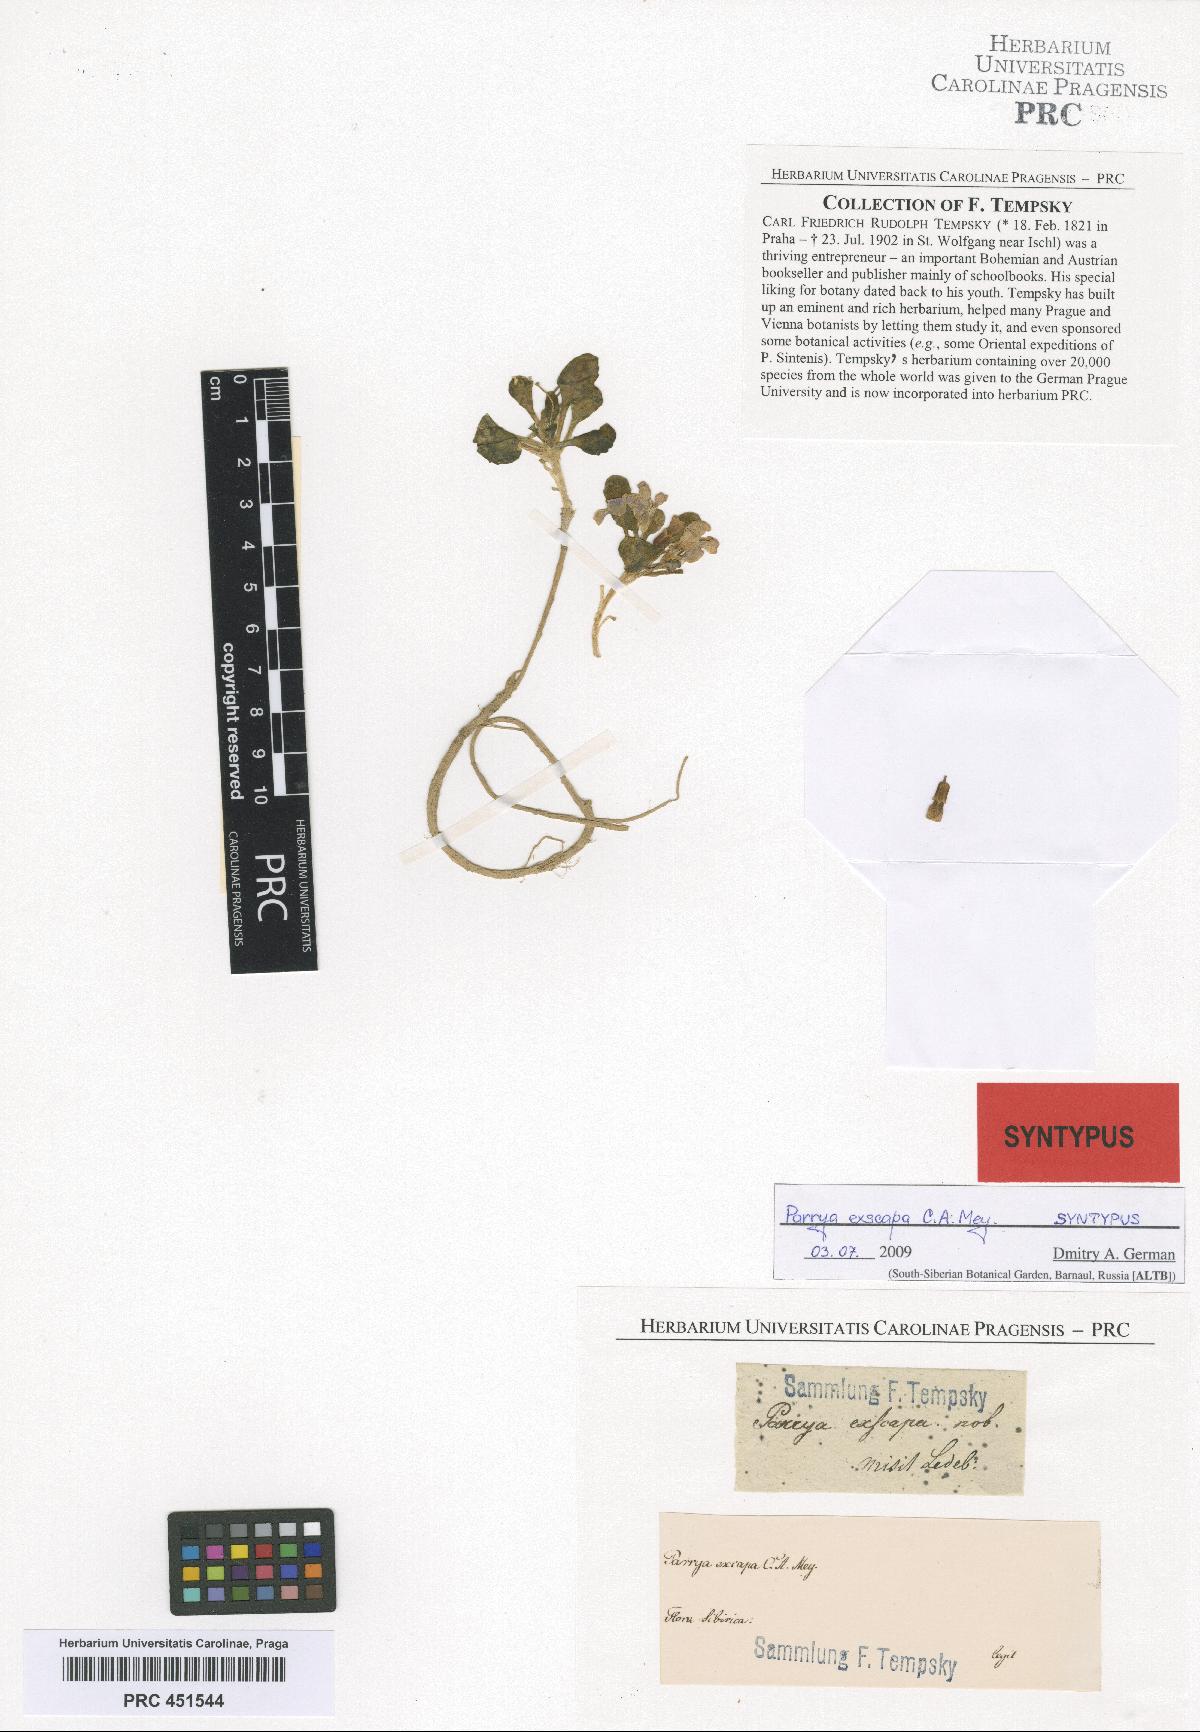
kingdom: Plantae
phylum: Tracheophyta
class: Magnoliopsida
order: Brassicales
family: Brassicaceae
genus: Leiospora
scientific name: Leiospora exscapa
